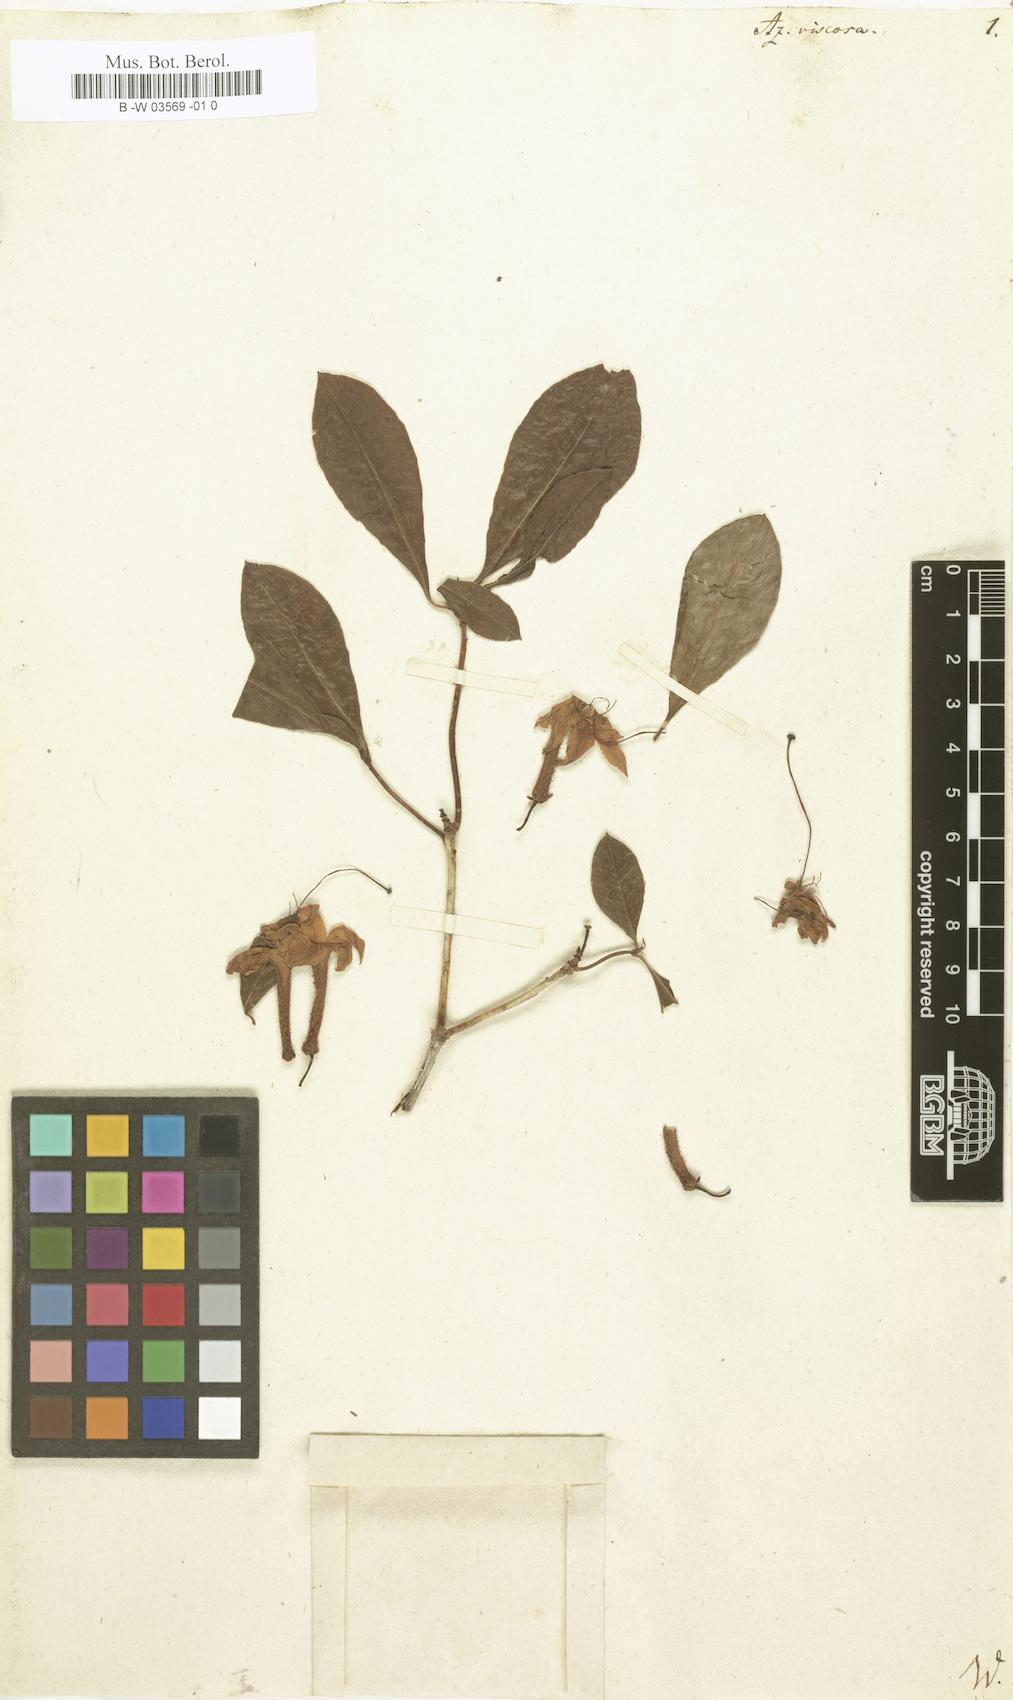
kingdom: Plantae
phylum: Tracheophyta
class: Magnoliopsida
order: Ericales
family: Ericaceae
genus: Rhododendron
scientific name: Rhododendron viscosum
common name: Clammy azalea
